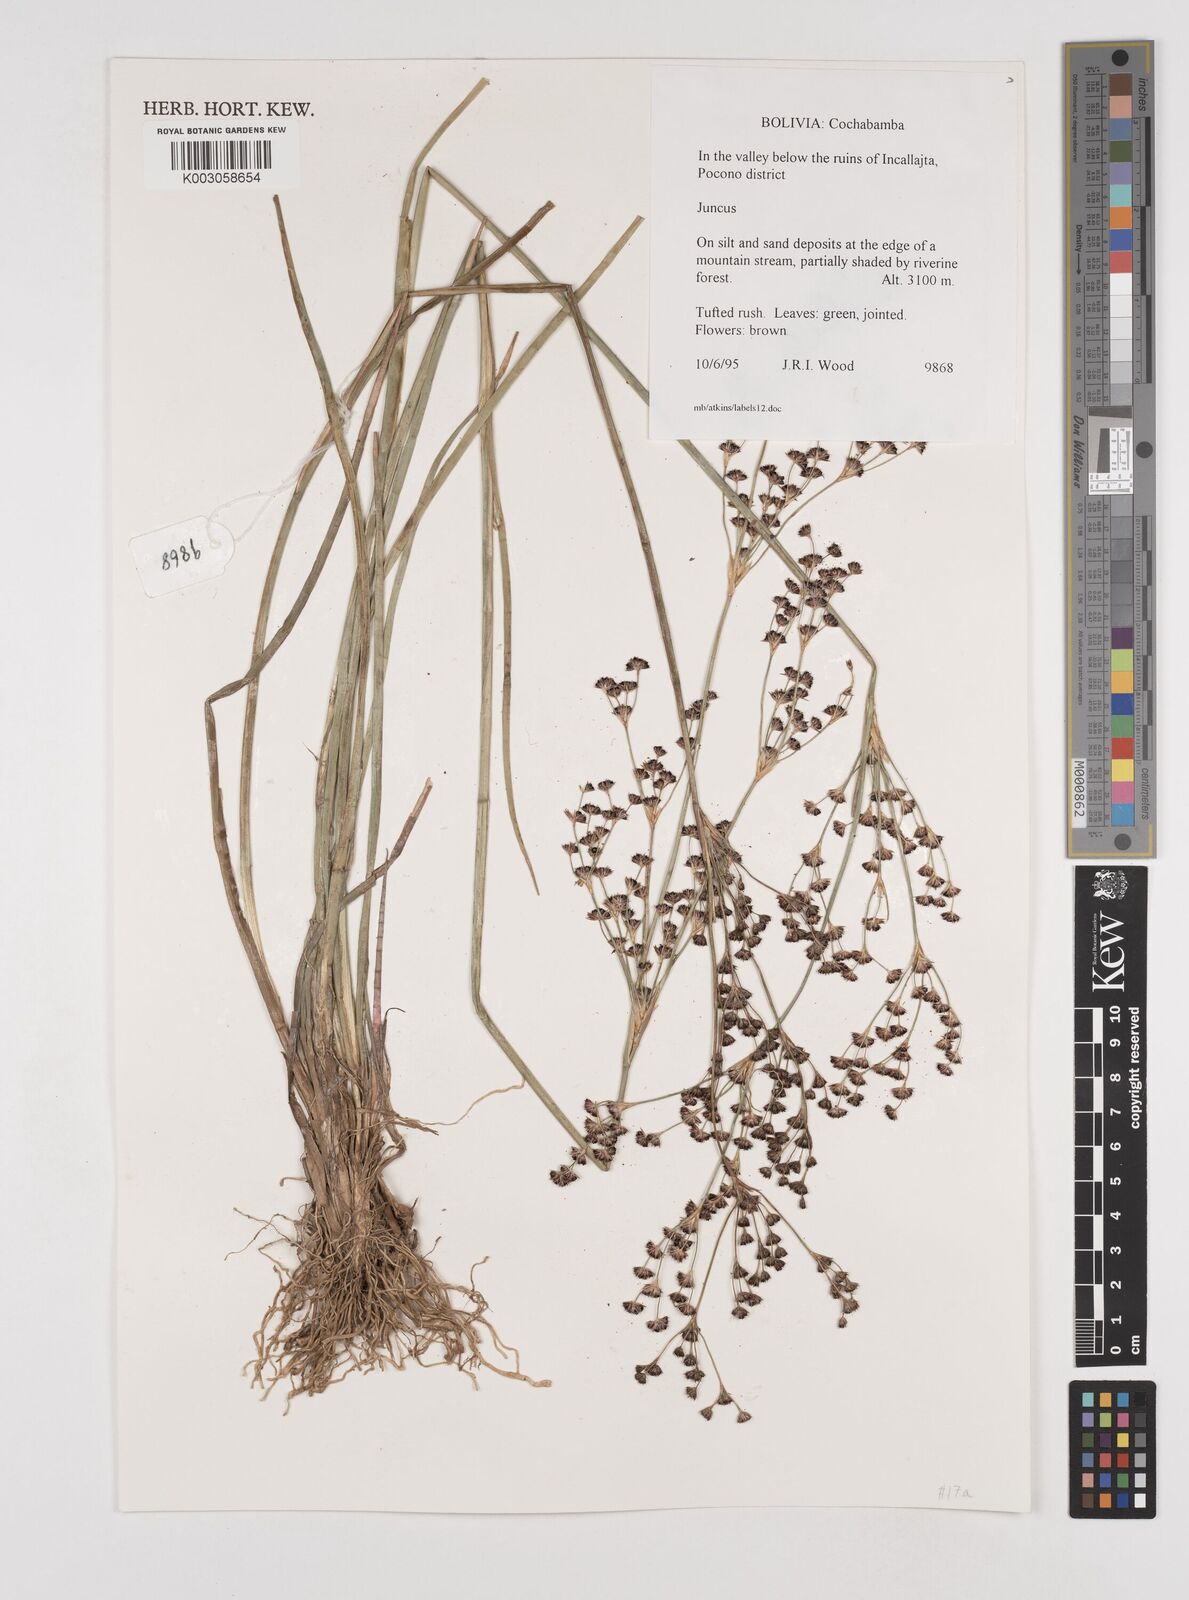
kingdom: Plantae
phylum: Tracheophyta
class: Liliopsida
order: Poales
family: Juncaceae
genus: Juncus
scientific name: Juncus
